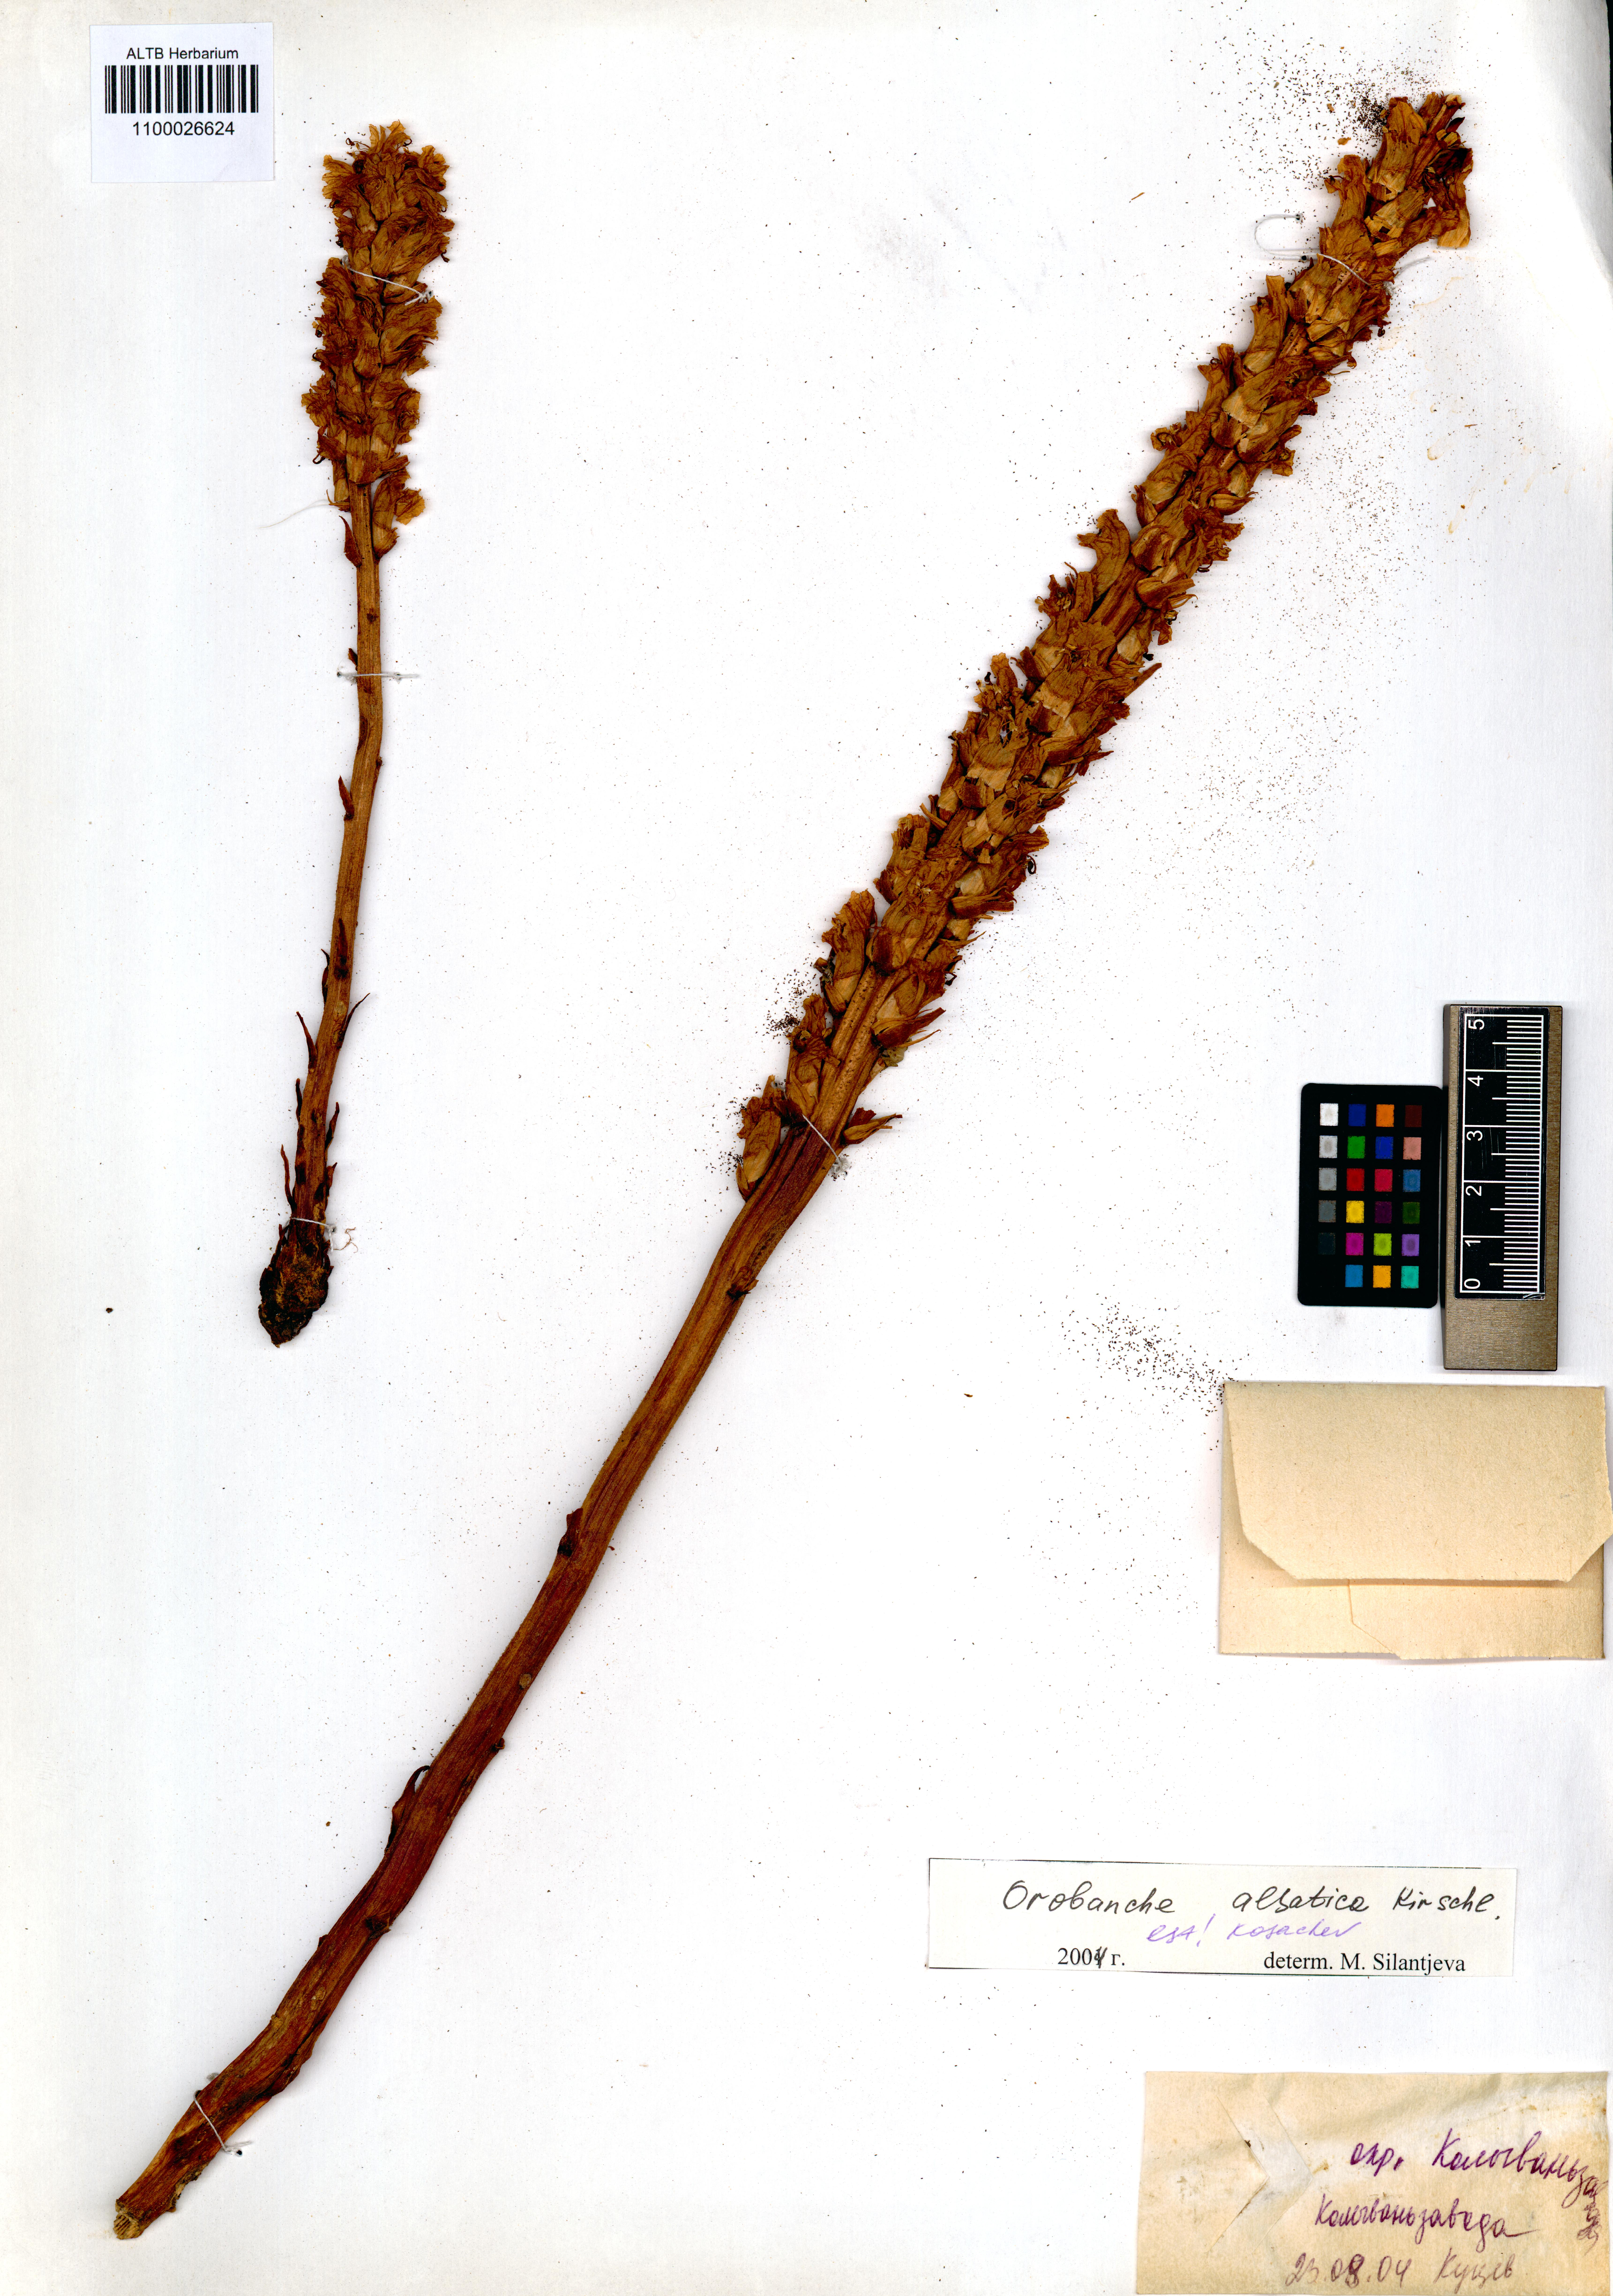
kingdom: Plantae
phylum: Tracheophyta
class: Magnoliopsida
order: Lamiales
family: Orobanchaceae
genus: Orobanche
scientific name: Orobanche alsatica
